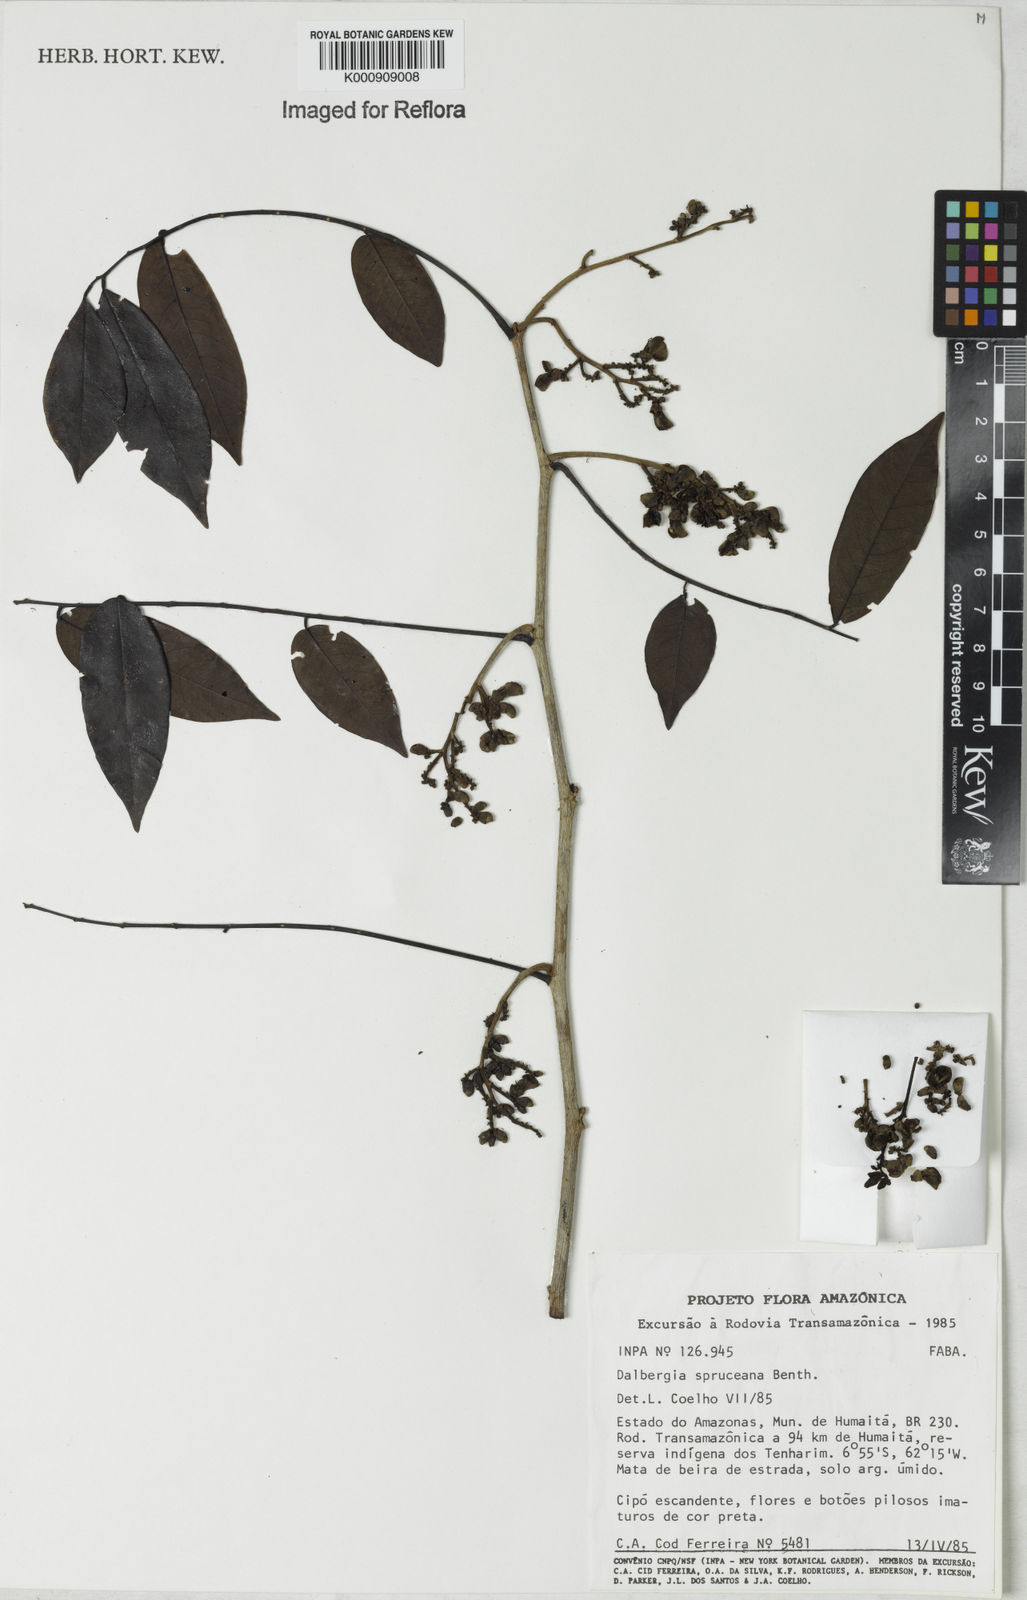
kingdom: Plantae
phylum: Tracheophyta
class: Magnoliopsida
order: Fabales
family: Fabaceae
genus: Dalbergia
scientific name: Dalbergia spruceana
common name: Amazon rosewood
